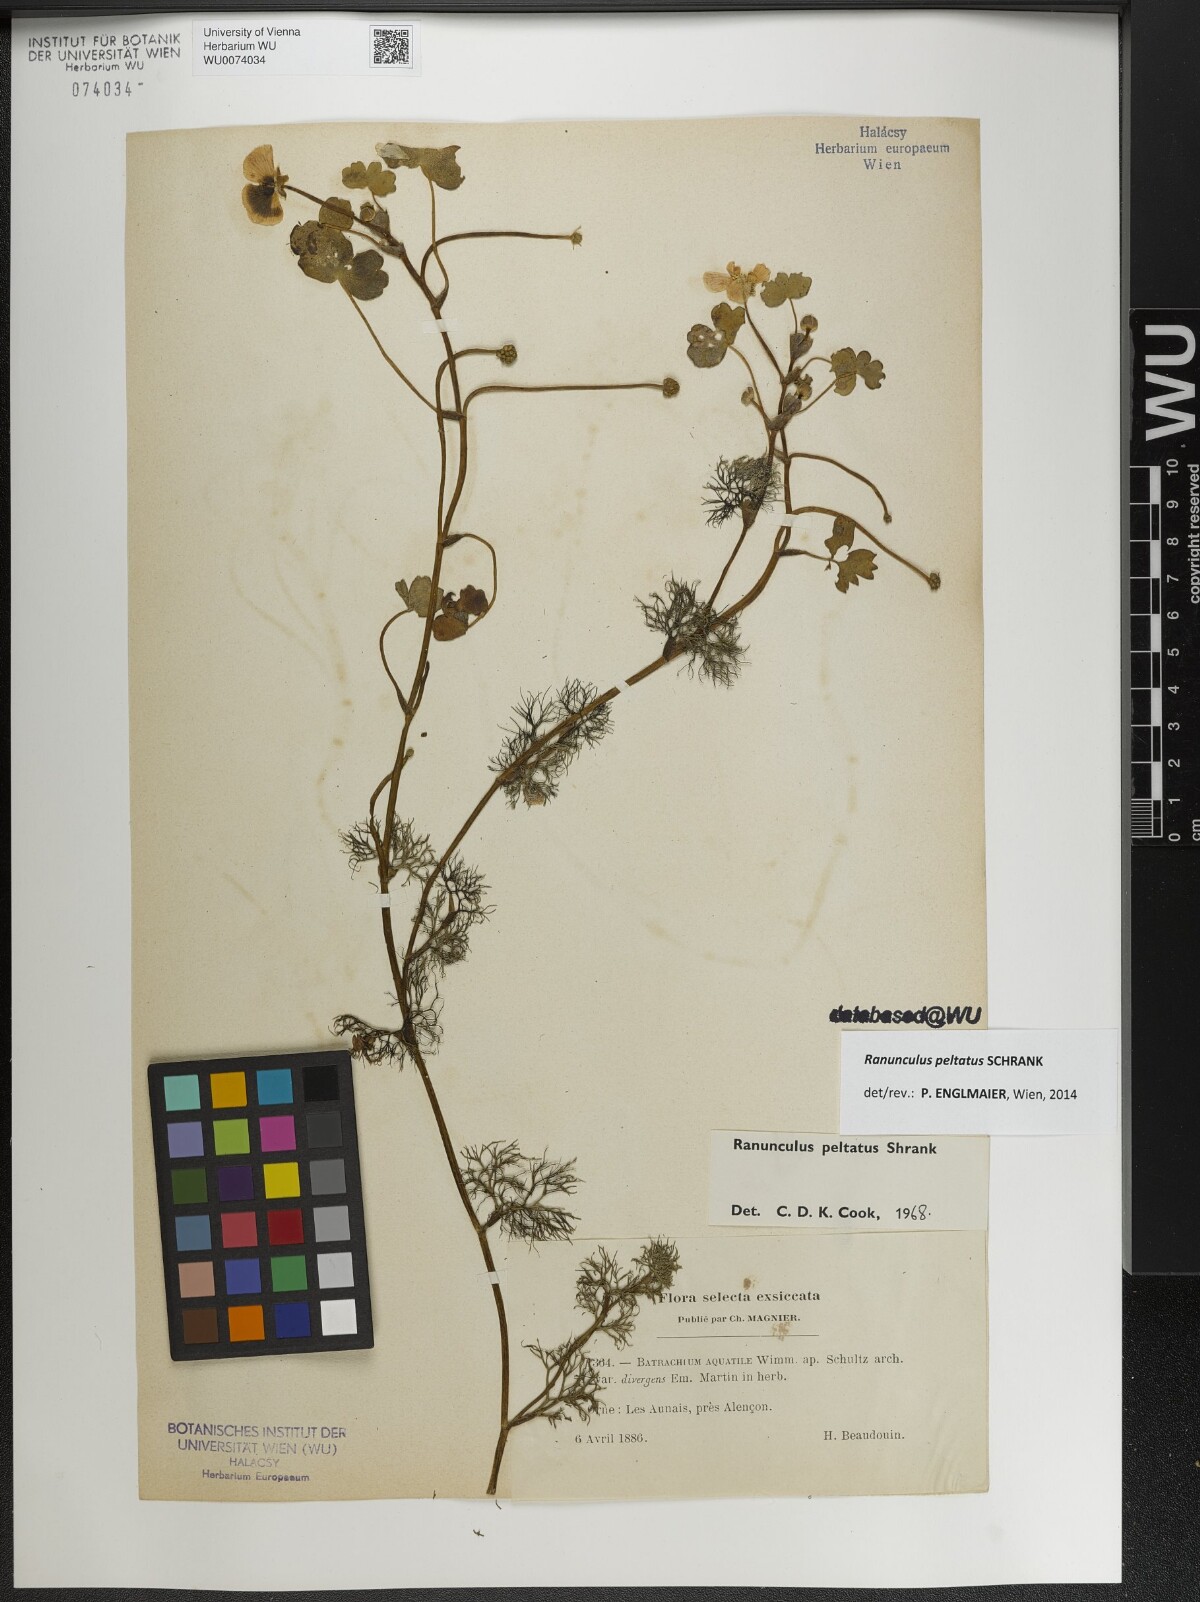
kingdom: Plantae
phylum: Tracheophyta
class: Magnoliopsida
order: Ranunculales
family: Ranunculaceae
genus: Ranunculus
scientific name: Ranunculus peltatus
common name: Pond water-crowfoot
